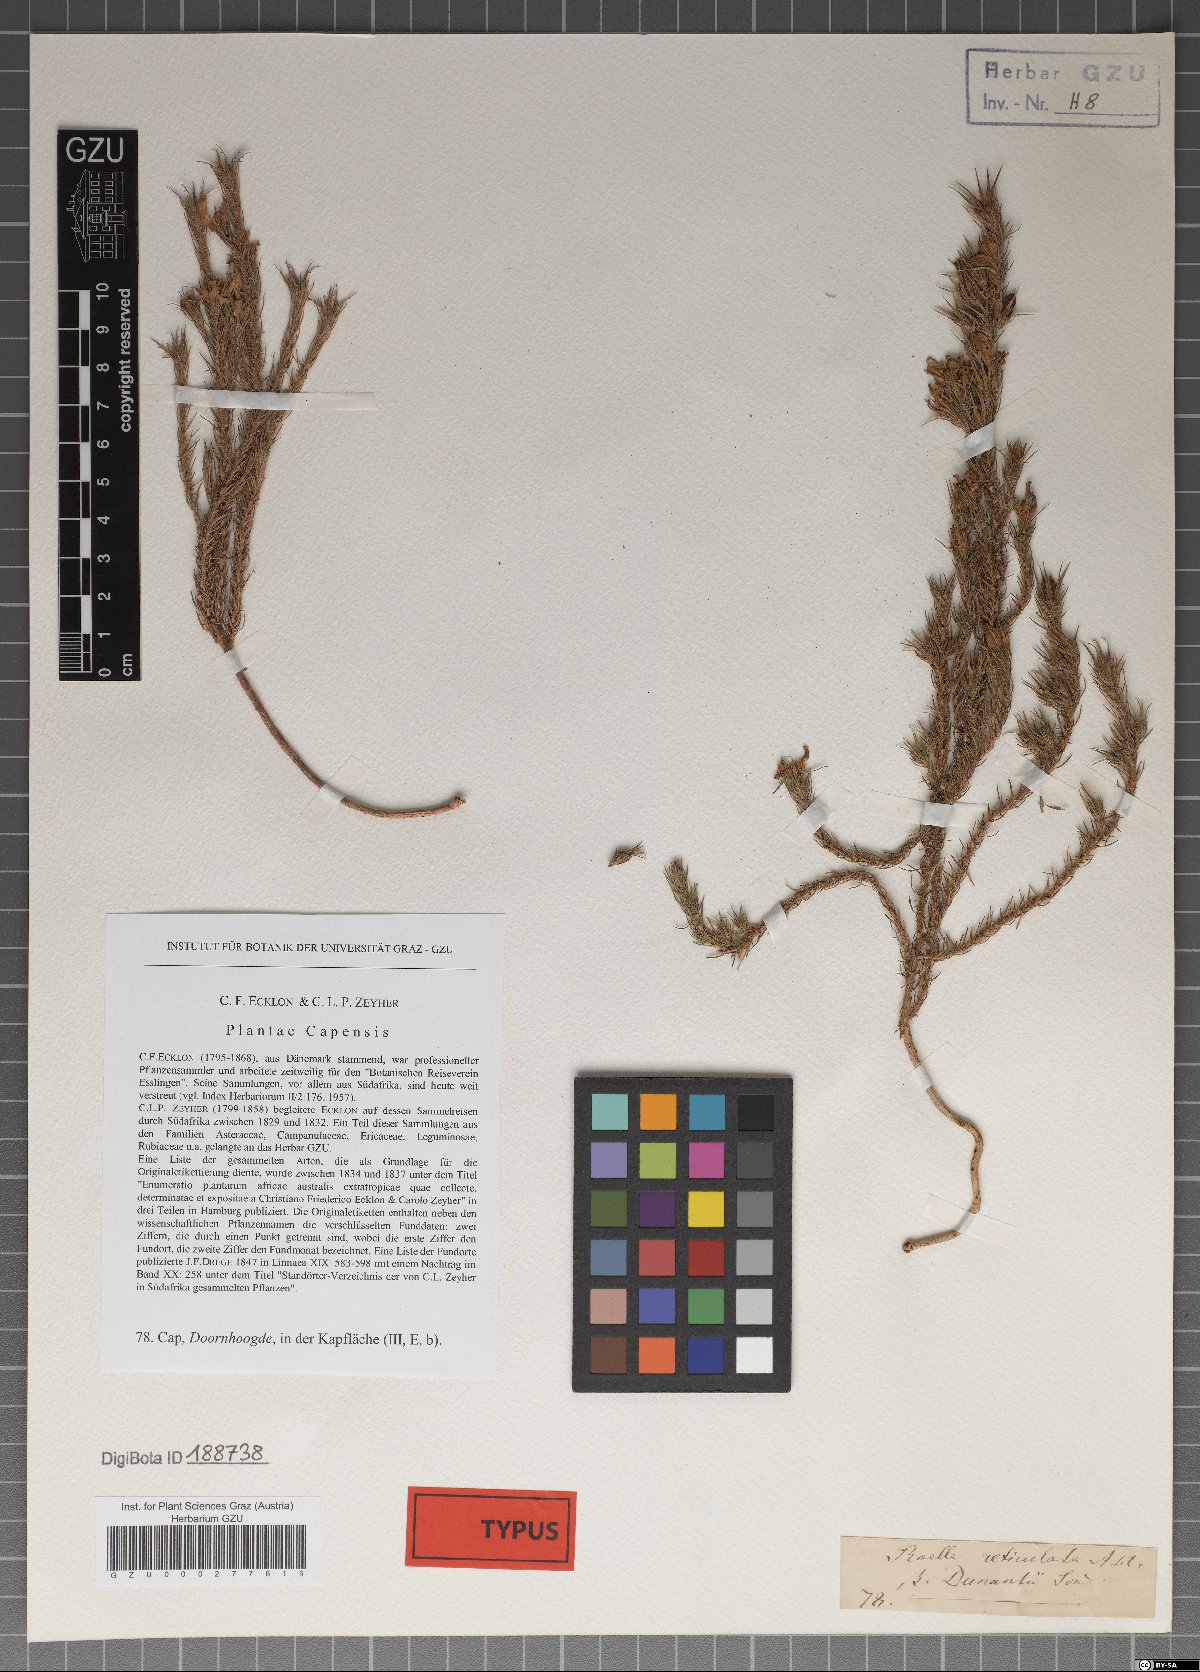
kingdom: Plantae
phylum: Tracheophyta
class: Magnoliopsida
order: Asterales
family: Campanulaceae
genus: Roella
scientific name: Roella dunantii
